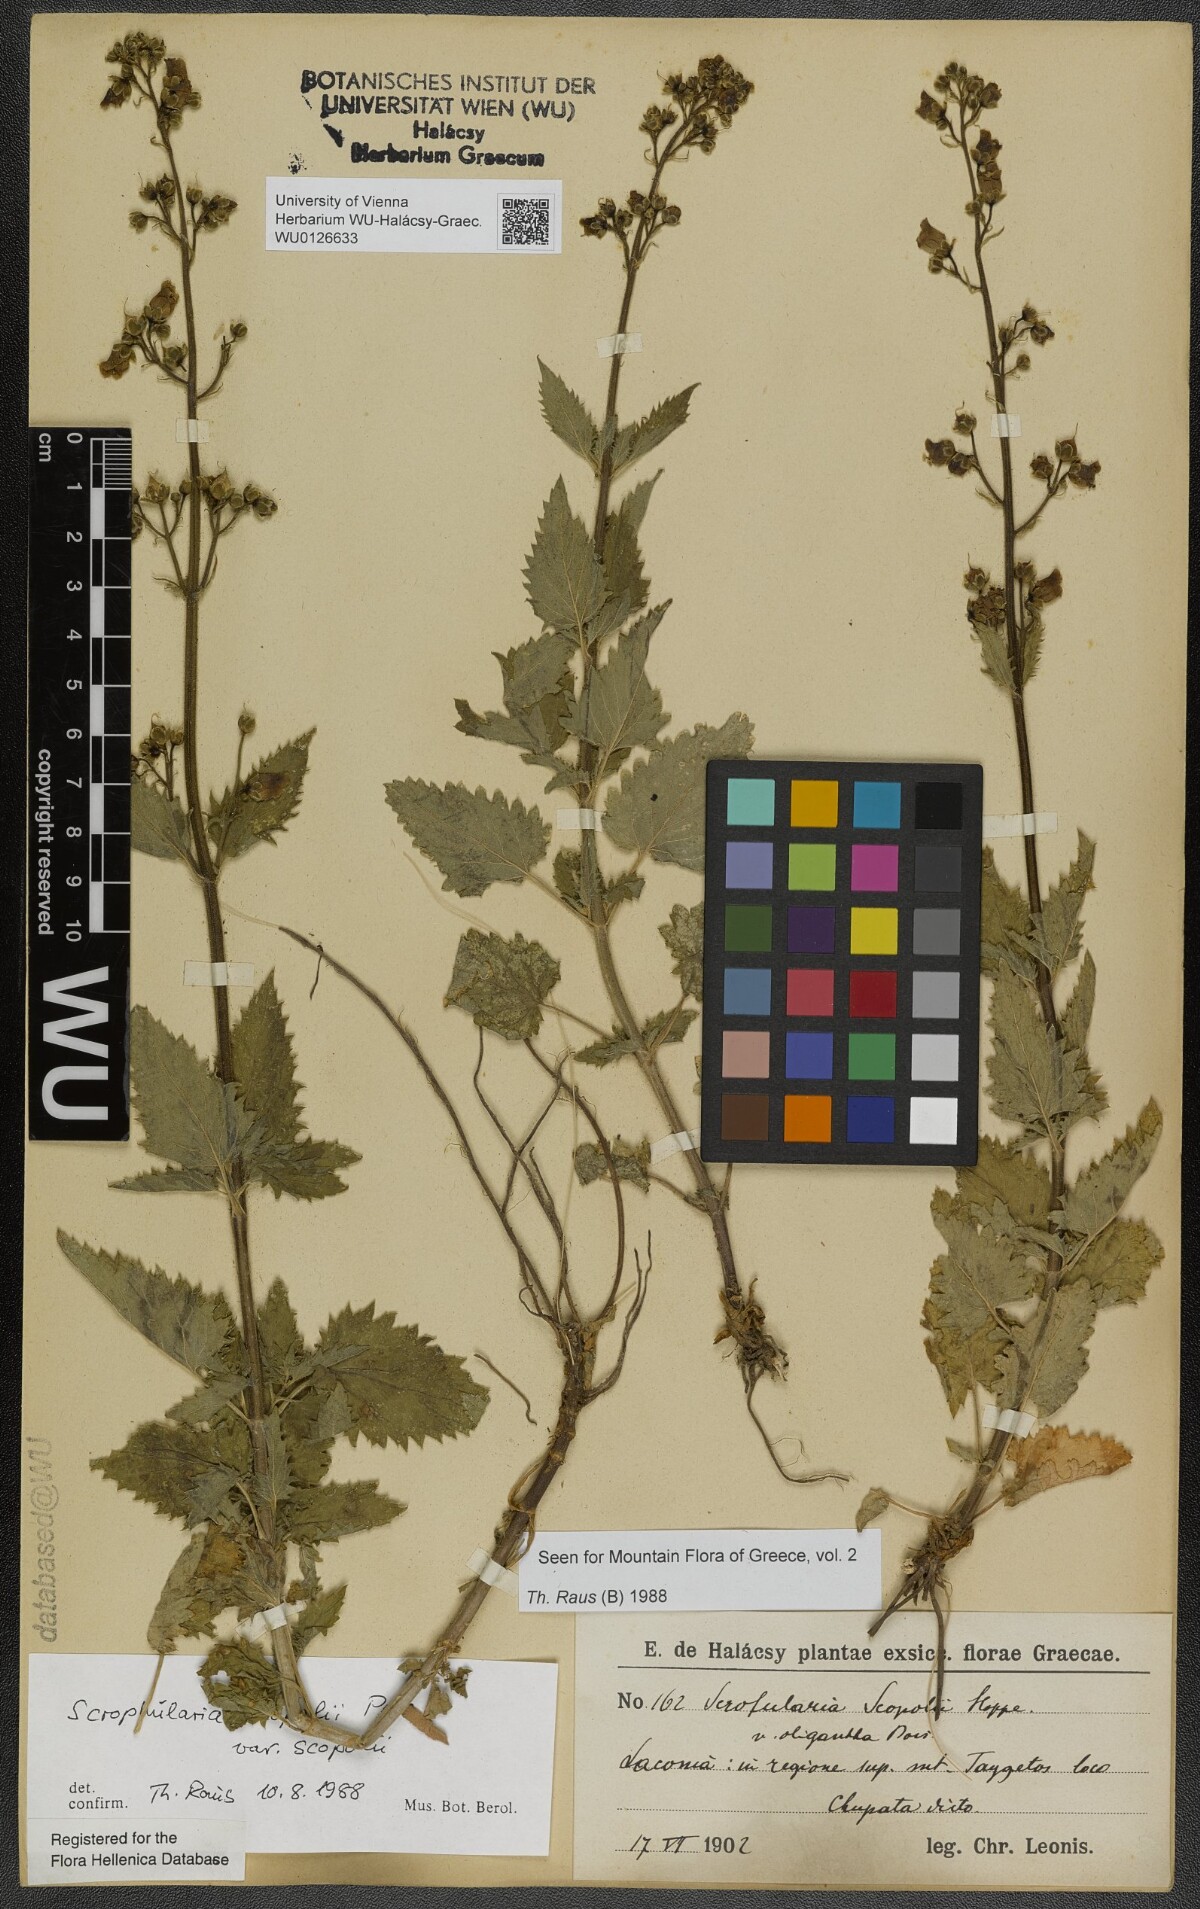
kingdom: Plantae
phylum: Tracheophyta
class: Magnoliopsida
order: Lamiales
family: Scrophulariaceae
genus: Scrophularia
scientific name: Scrophularia scopolii
